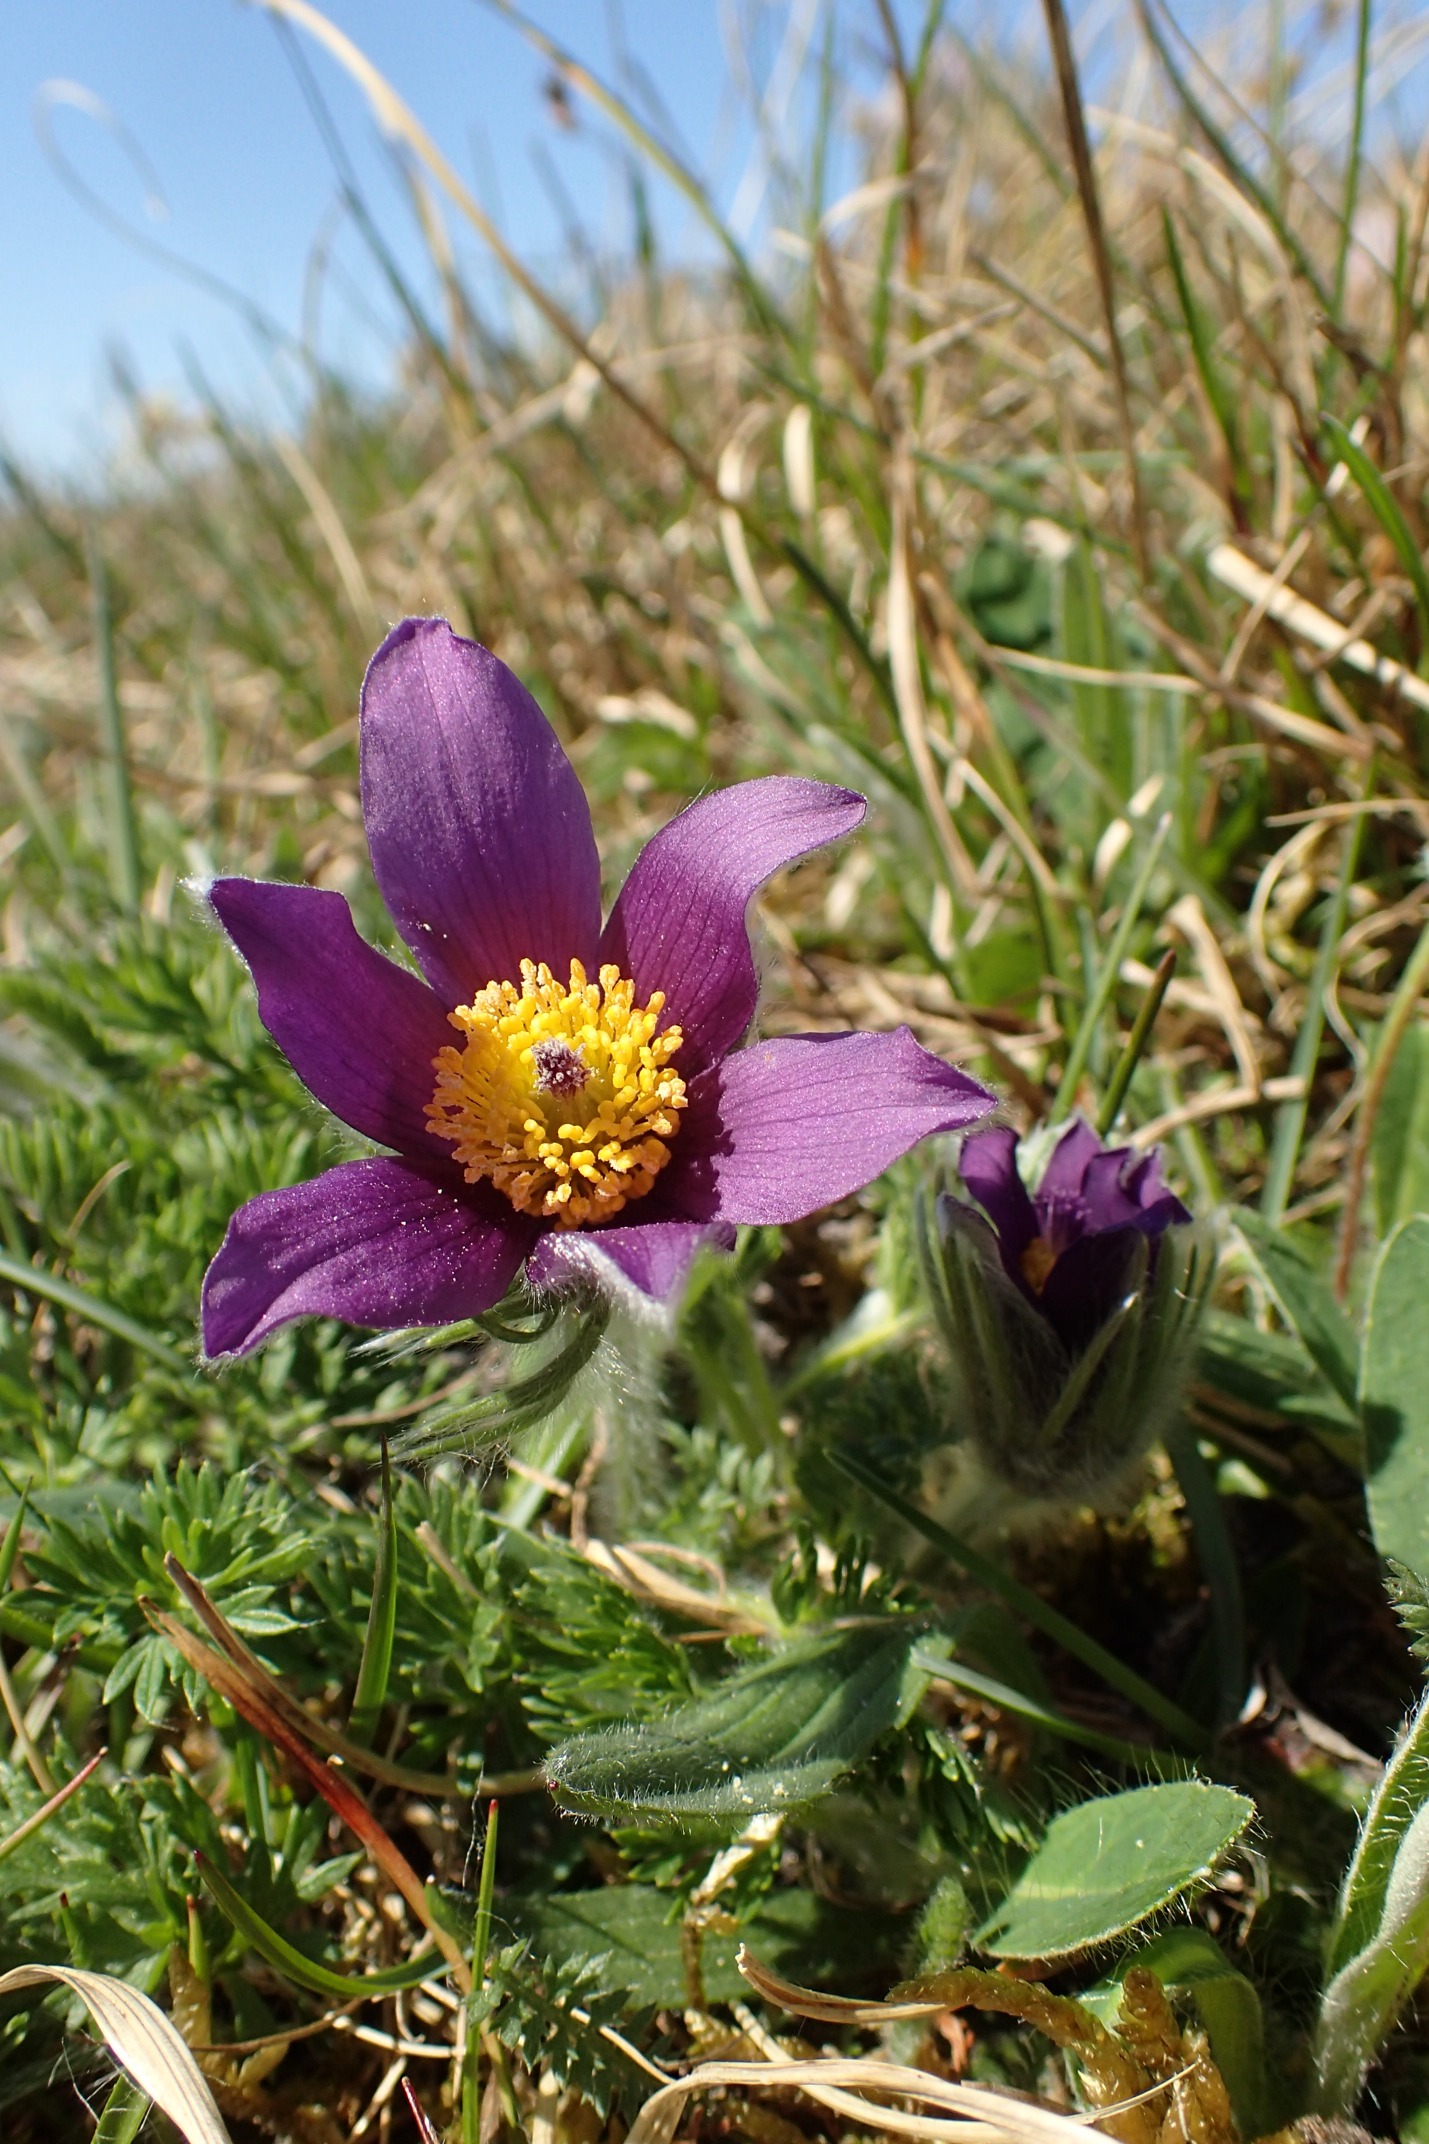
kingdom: Plantae
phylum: Tracheophyta
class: Magnoliopsida
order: Ranunculales
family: Ranunculaceae
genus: Pulsatilla
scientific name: Pulsatilla vulgaris
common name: Opret kobjælde
